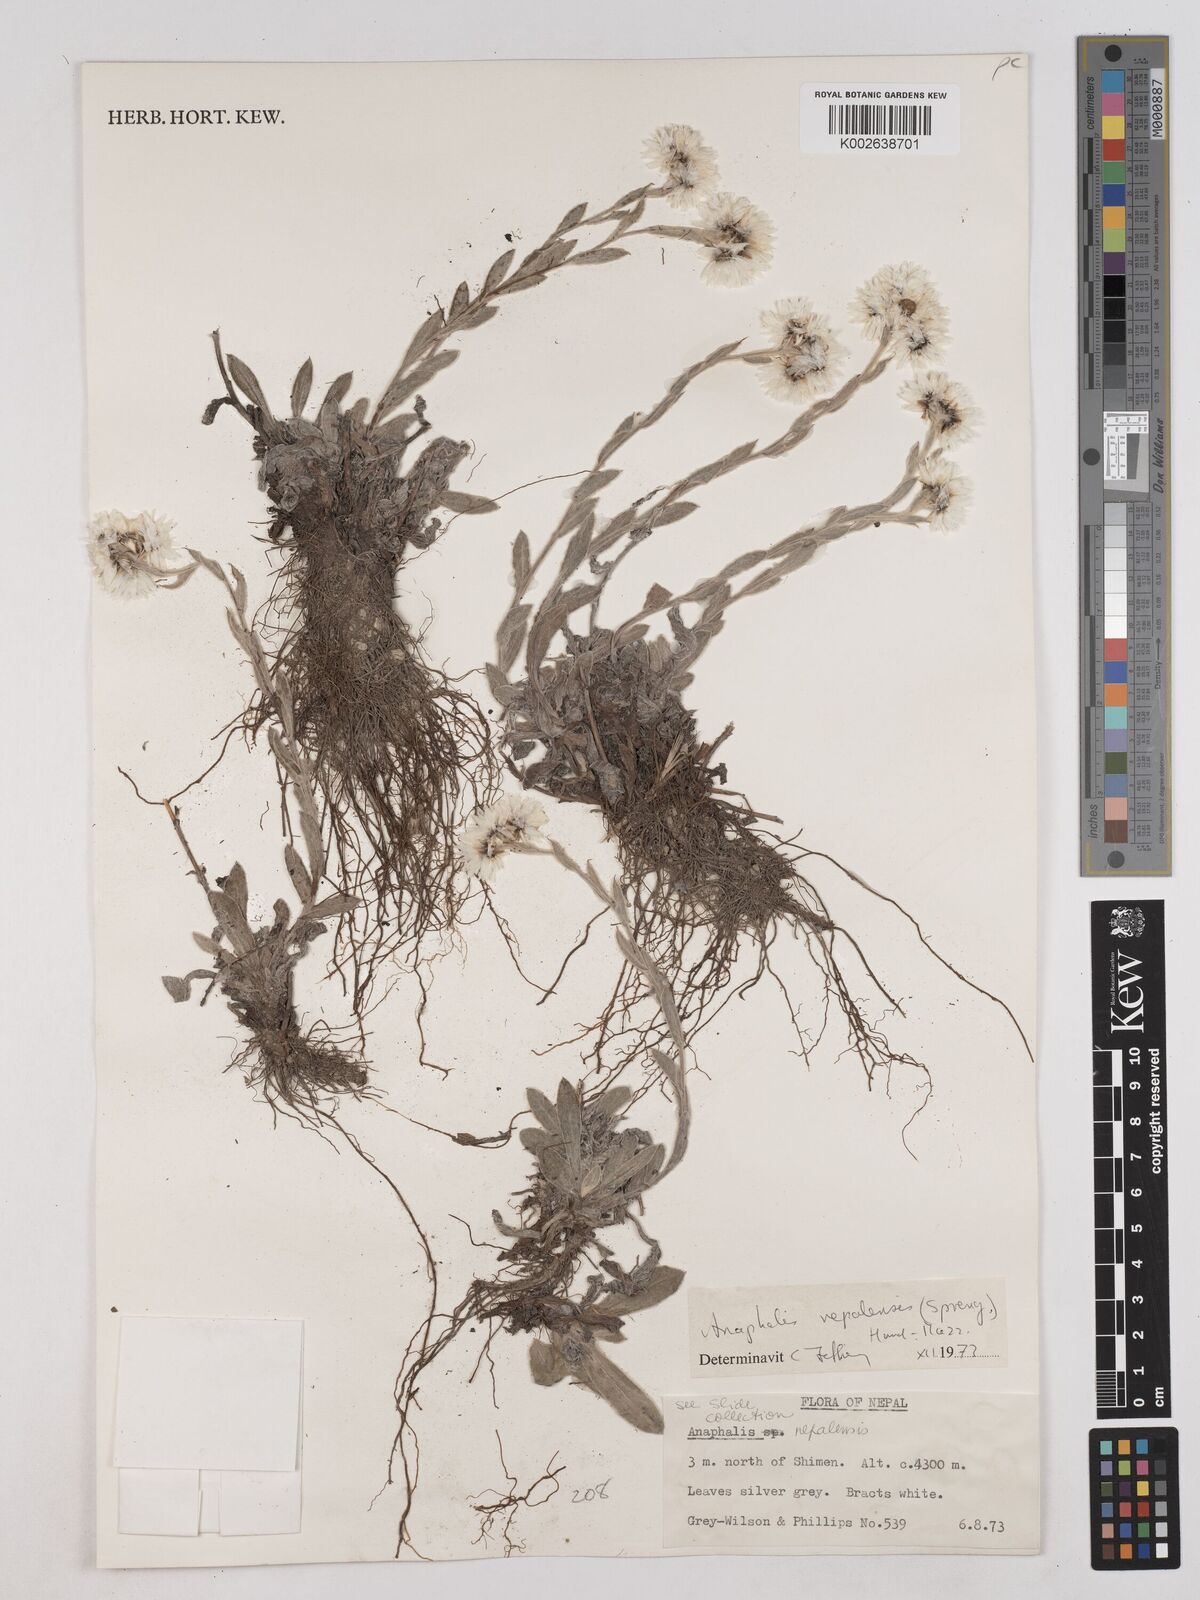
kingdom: Plantae
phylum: Tracheophyta
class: Magnoliopsida
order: Asterales
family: Asteraceae
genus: Anaphalis
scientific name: Anaphalis
